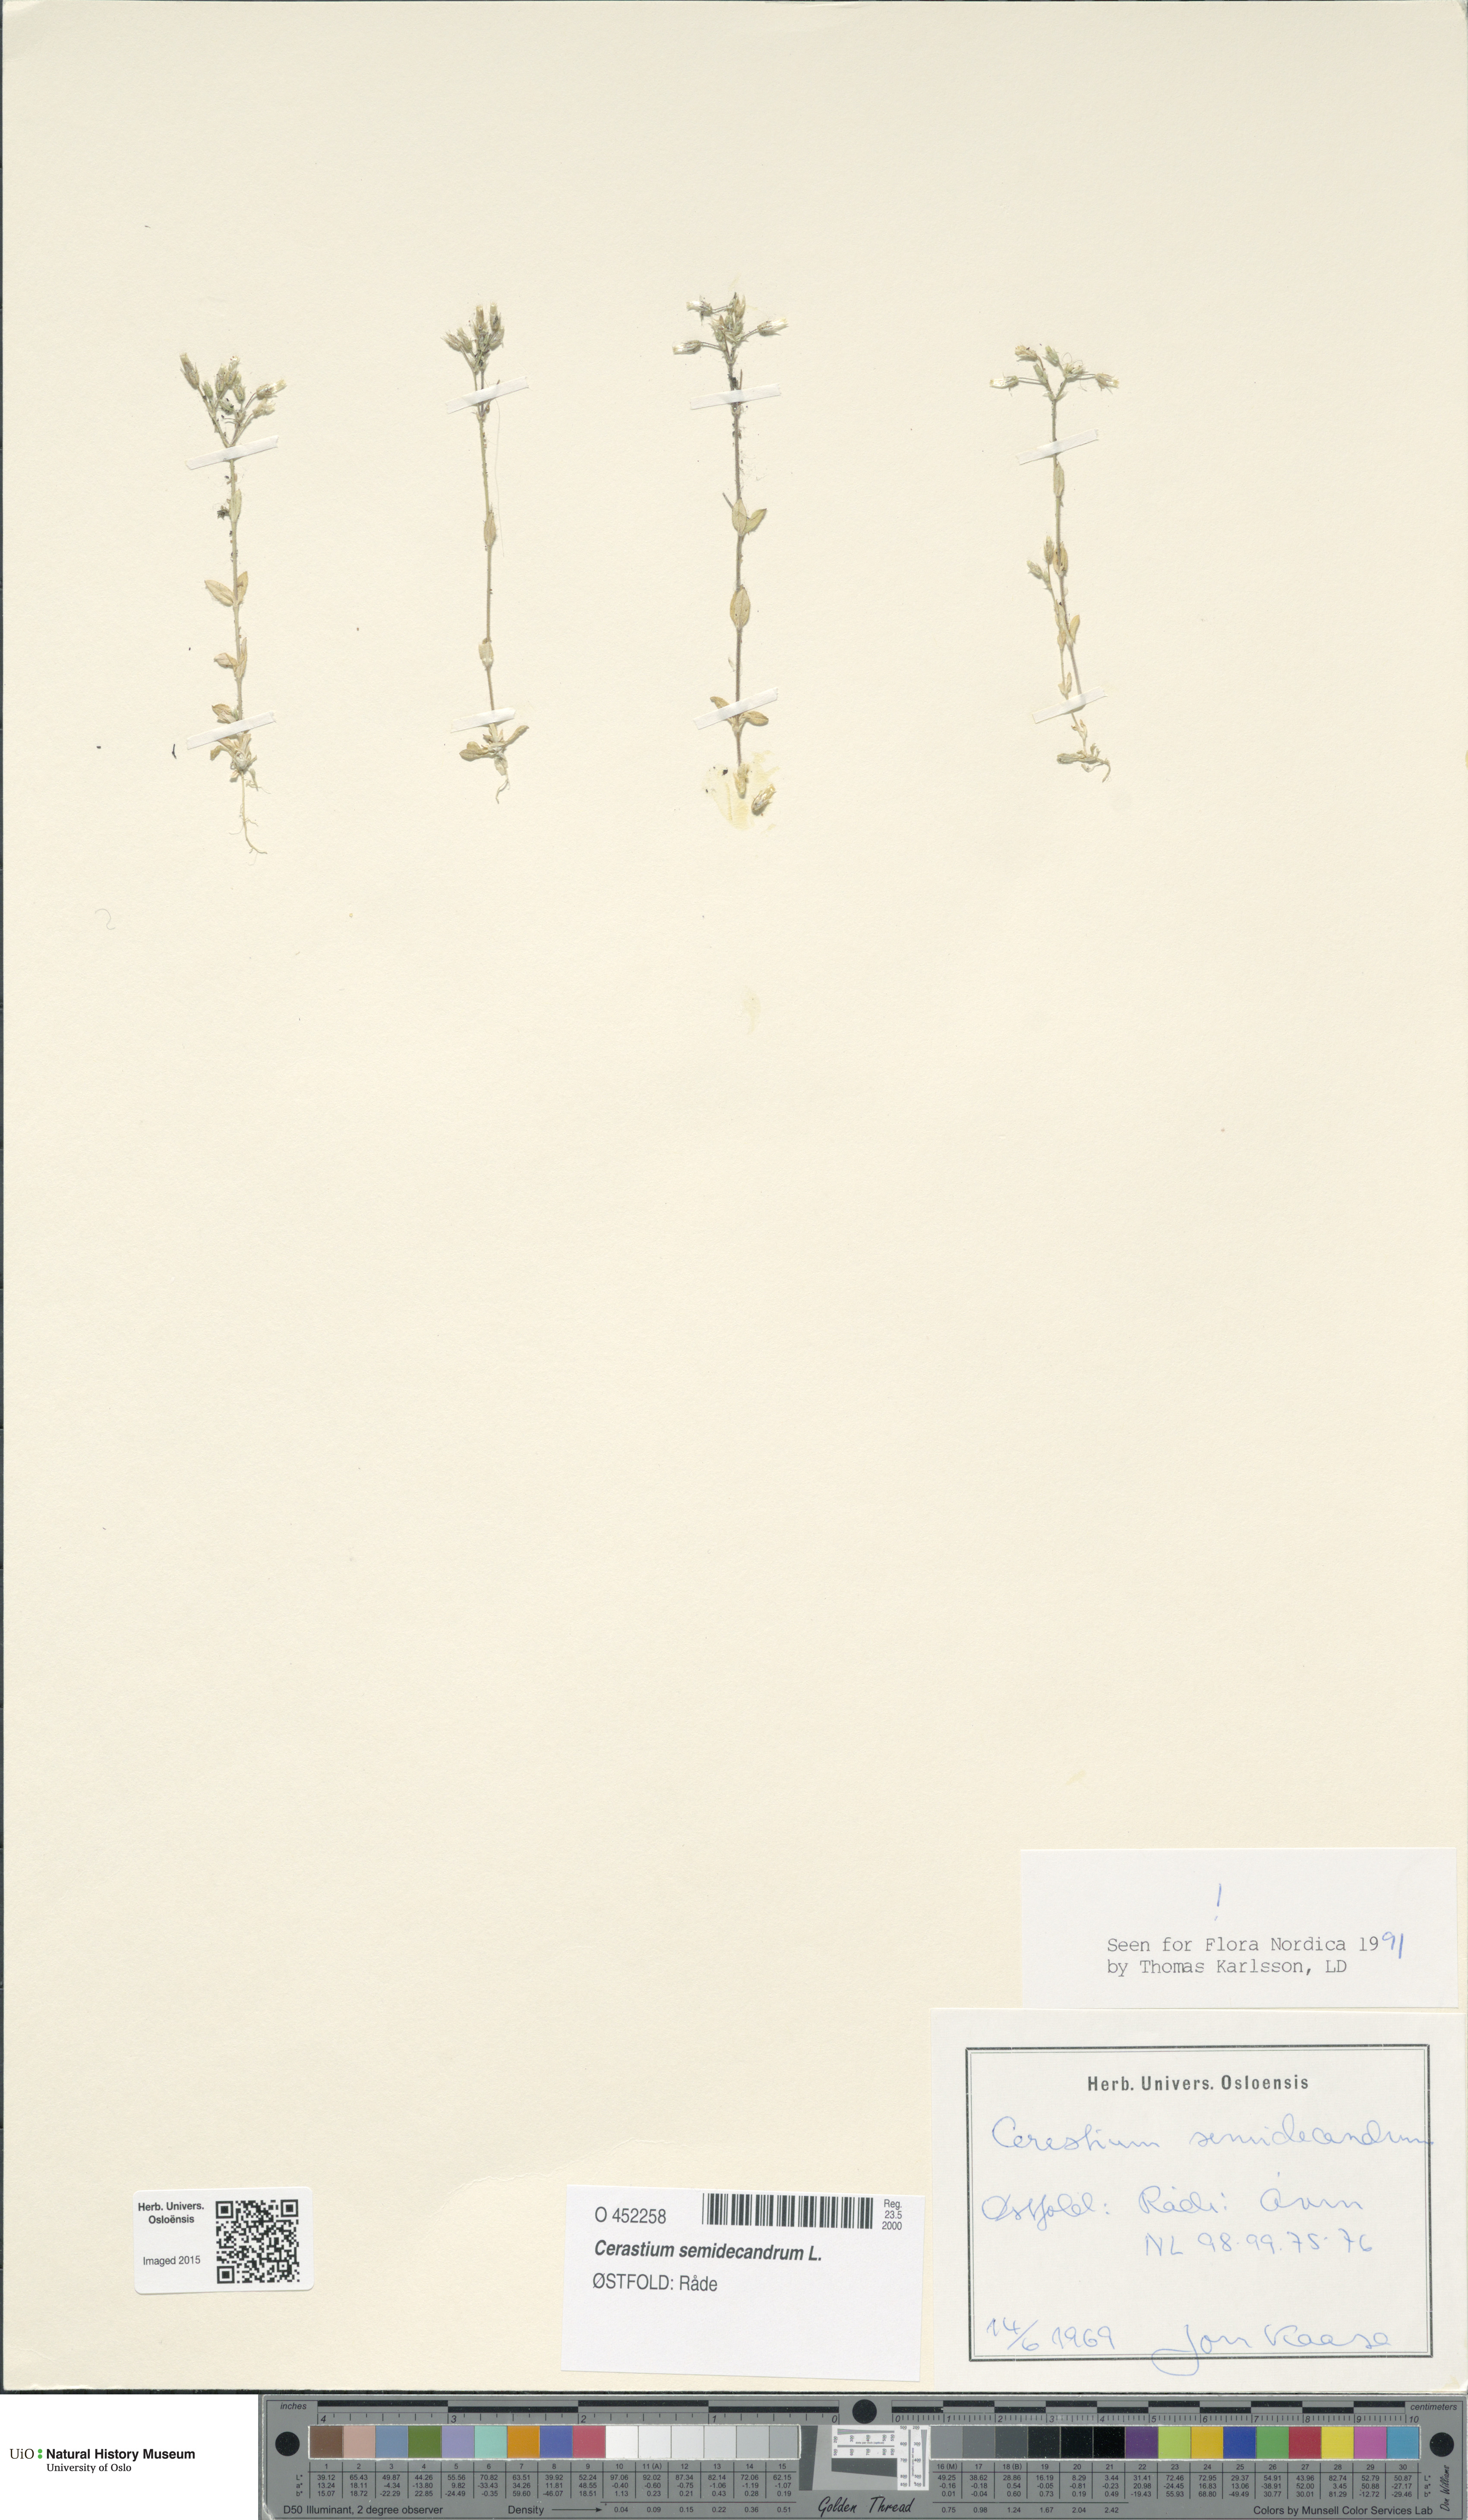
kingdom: Plantae
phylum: Tracheophyta
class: Magnoliopsida
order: Caryophyllales
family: Caryophyllaceae
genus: Cerastium
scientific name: Cerastium semidecandrum
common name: Little mouse-ear
